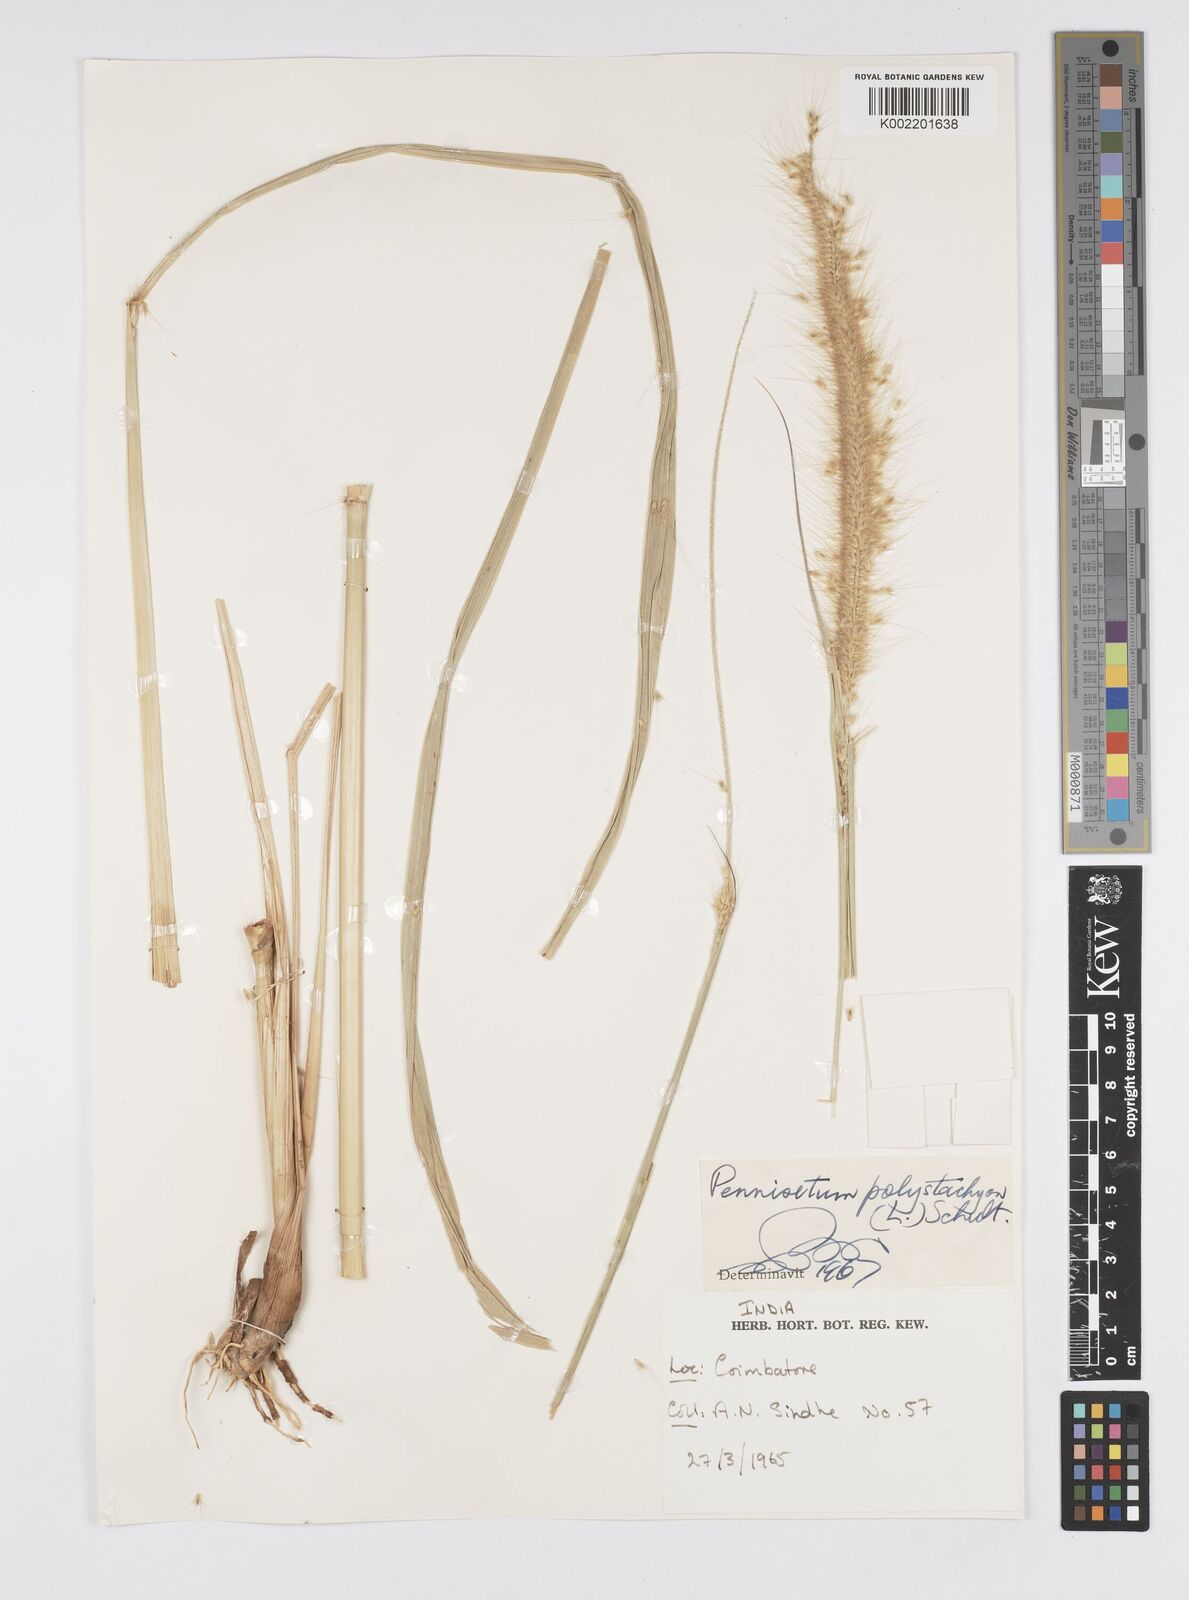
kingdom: Plantae
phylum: Tracheophyta
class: Liliopsida
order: Poales
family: Poaceae
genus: Setaria
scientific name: Setaria parviflora
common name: Knotroot bristle-grass
